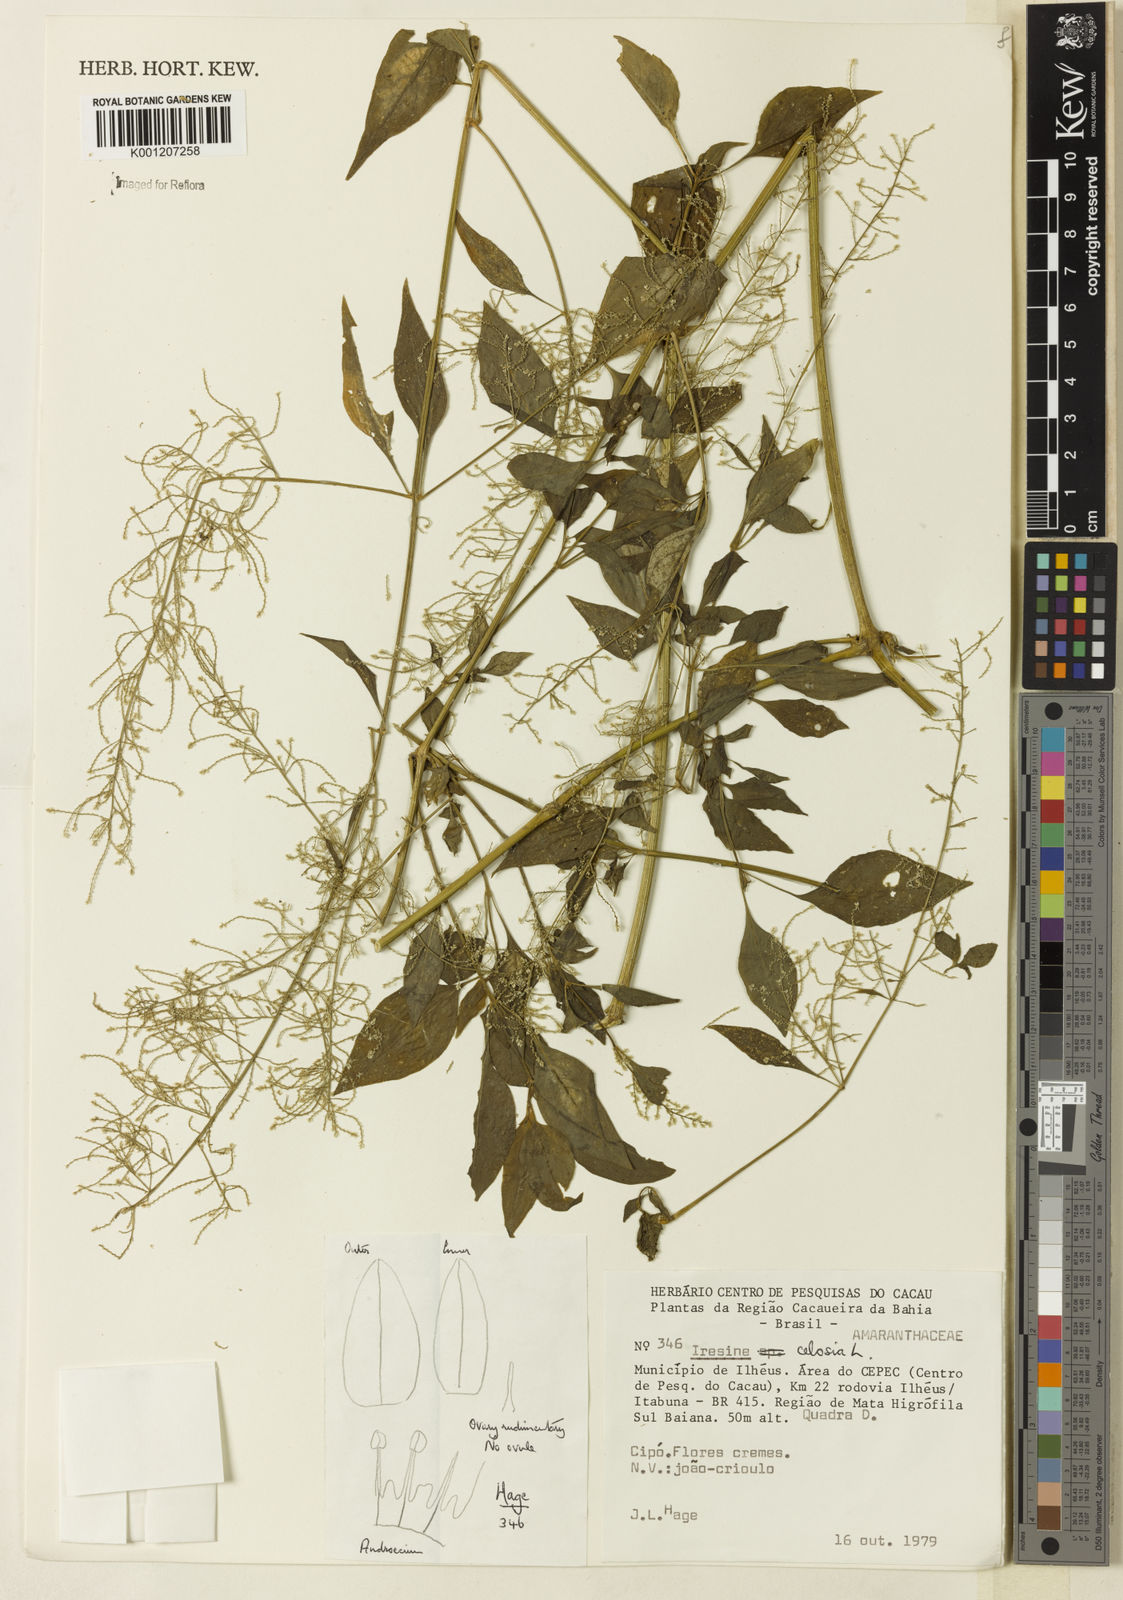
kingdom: Plantae
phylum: Tracheophyta
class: Magnoliopsida
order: Caryophyllales
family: Amaranthaceae
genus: Iresine
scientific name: Iresine rhizomatosa
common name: Juda's-bush
